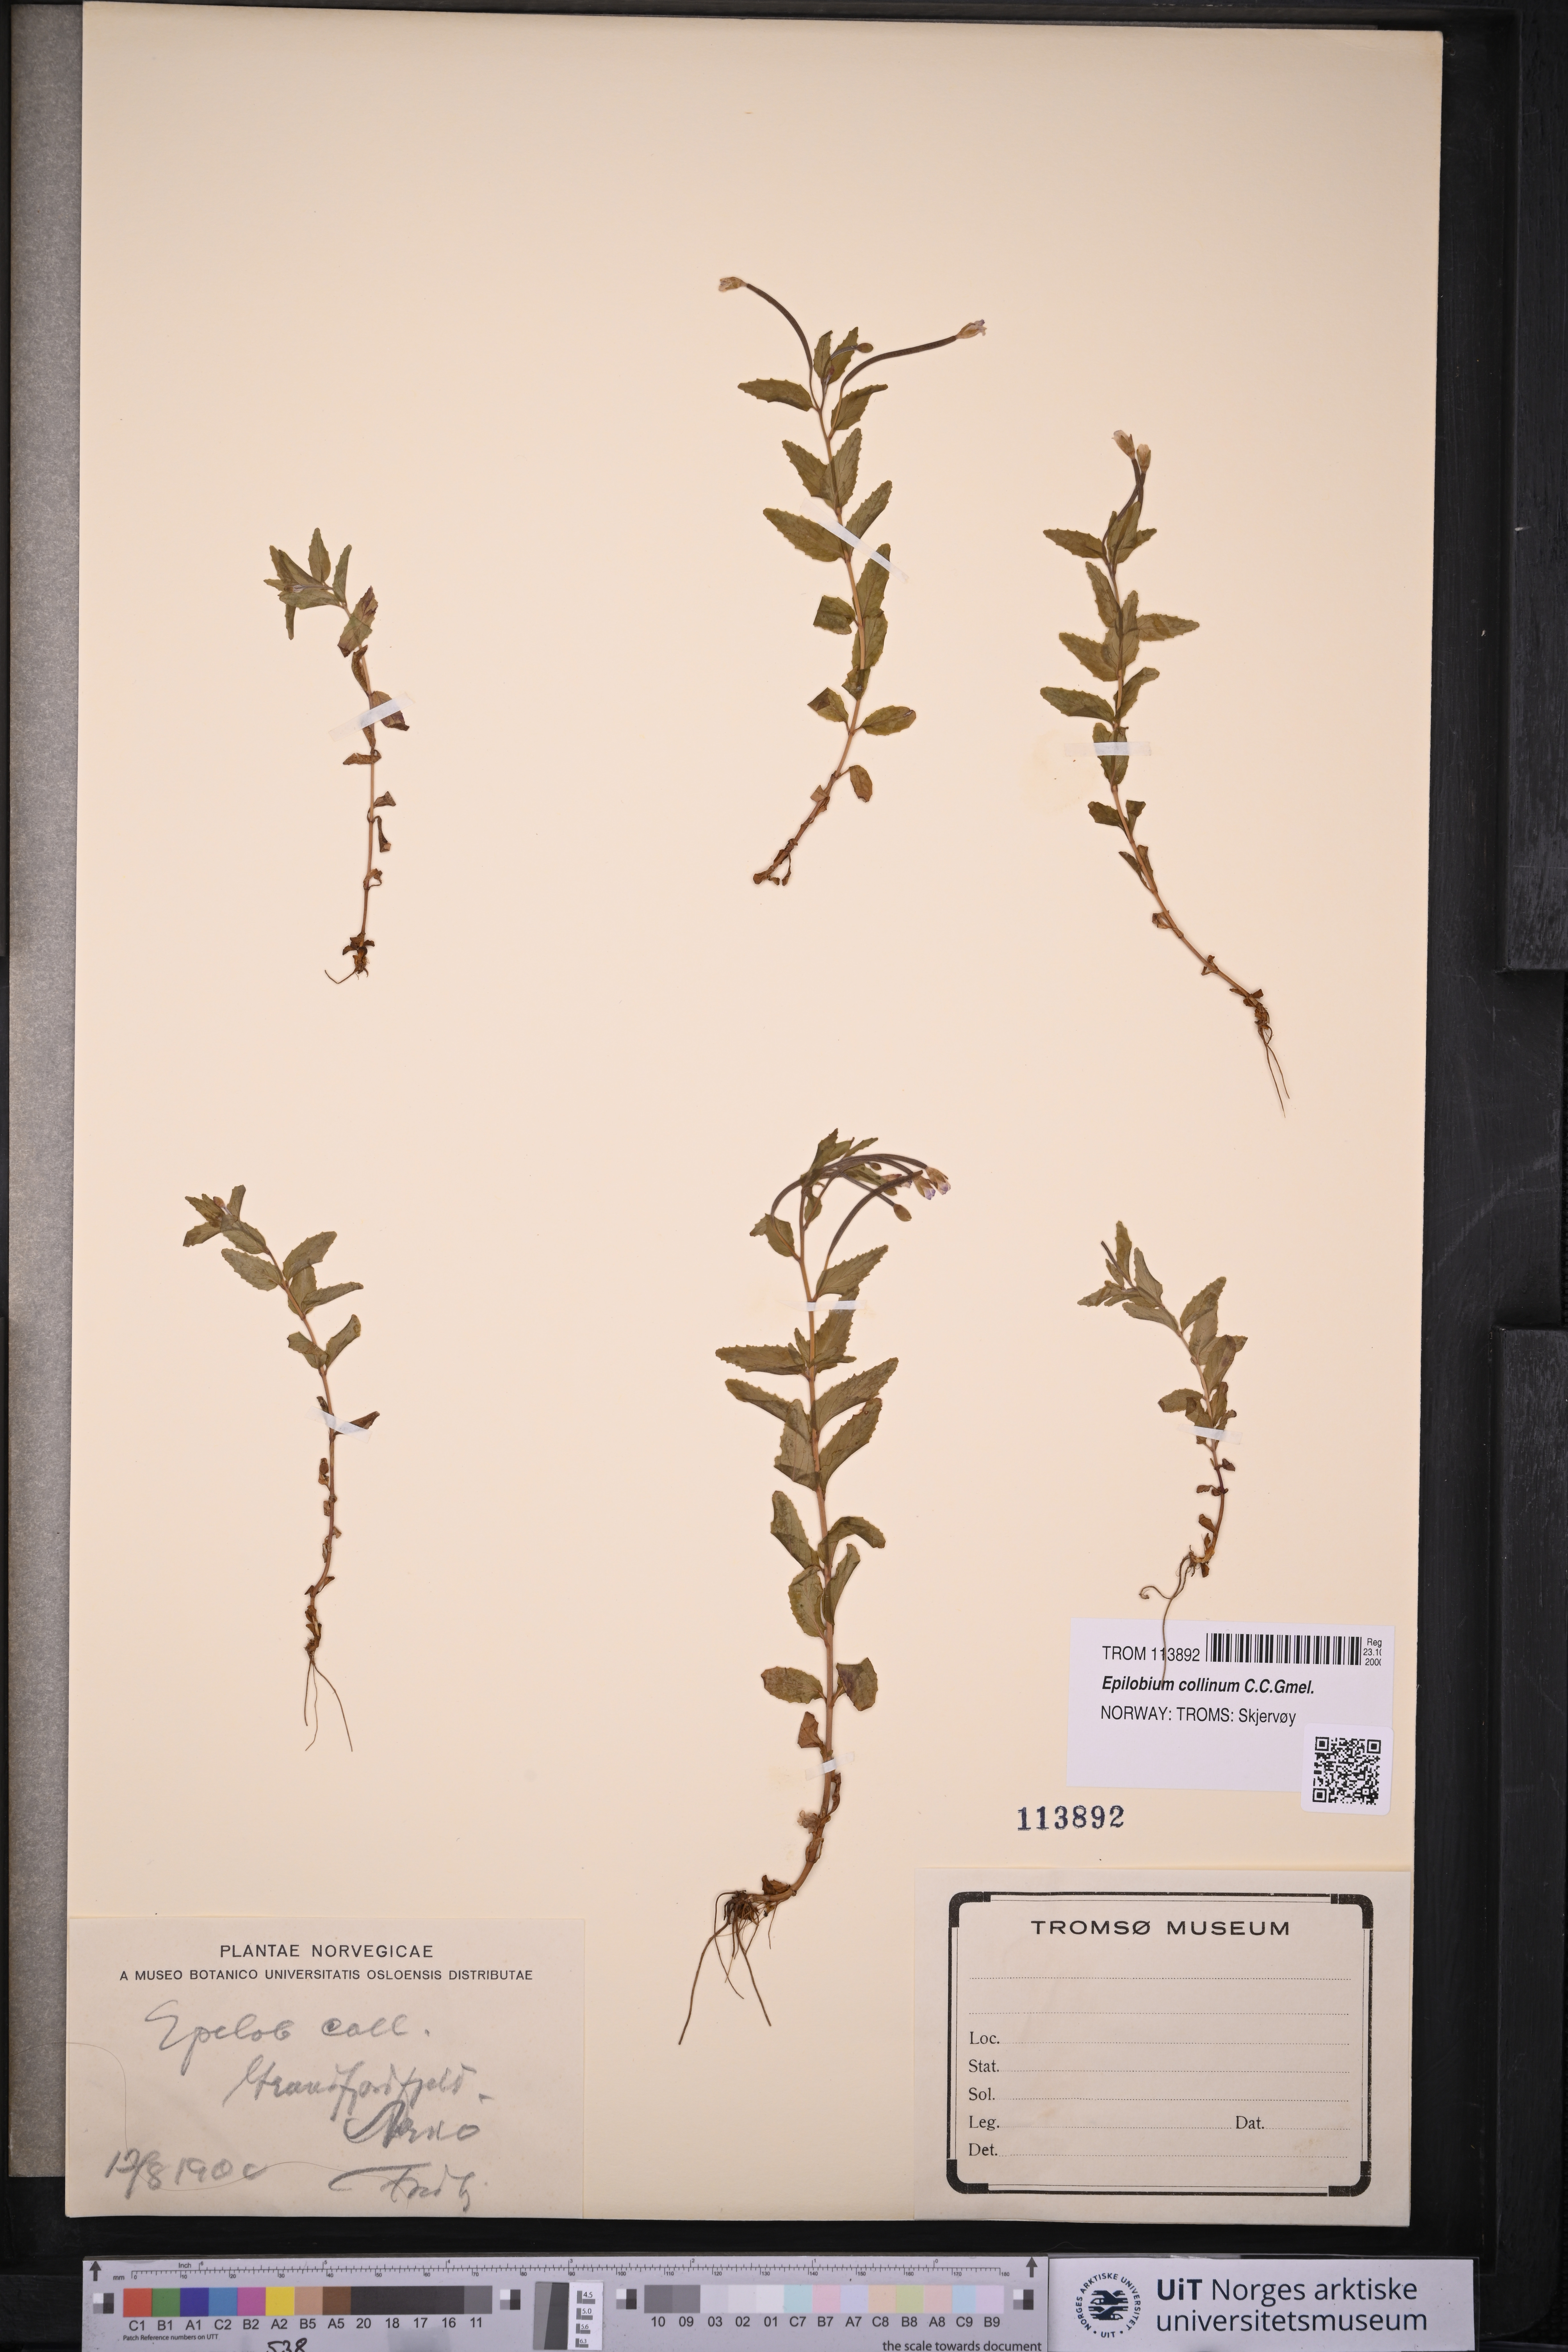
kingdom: Plantae
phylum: Tracheophyta
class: Magnoliopsida
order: Myrtales
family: Onagraceae
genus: Epilobium
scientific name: Epilobium collinum
